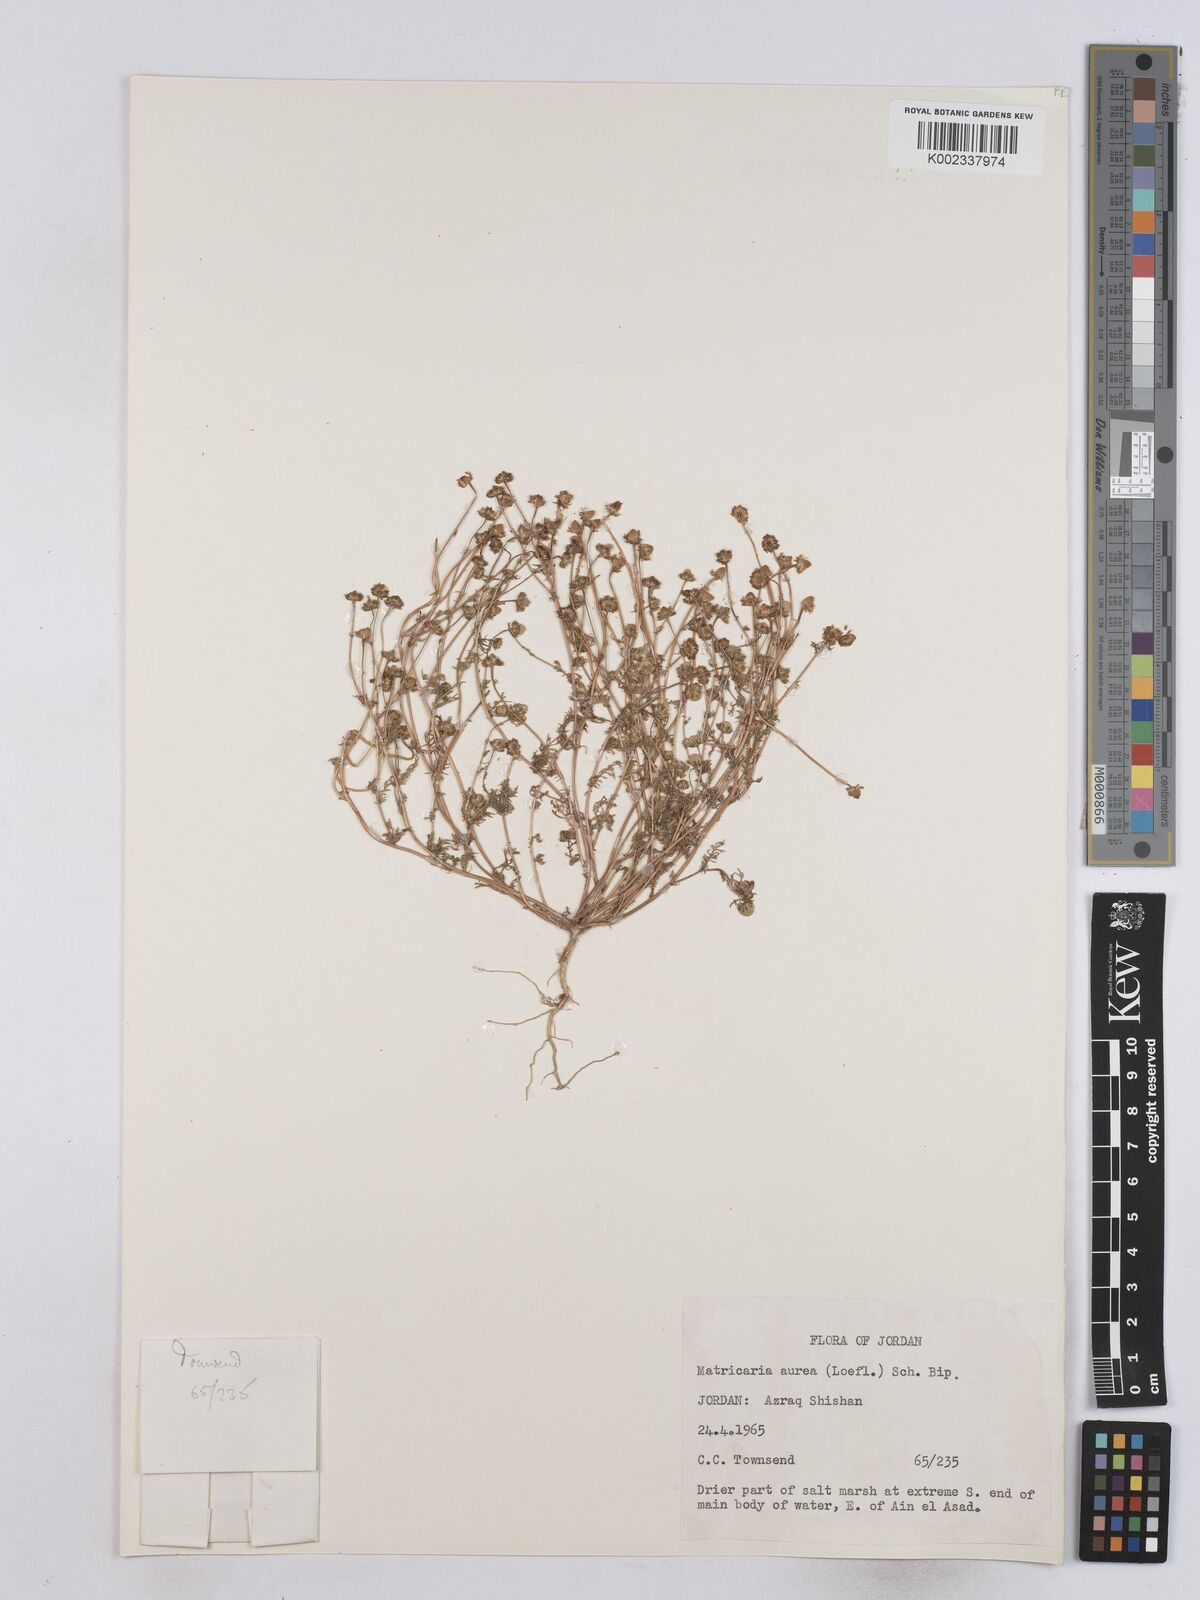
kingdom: Plantae
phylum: Tracheophyta
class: Magnoliopsida
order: Asterales
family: Asteraceae
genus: Matricaria
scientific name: Matricaria aurea
